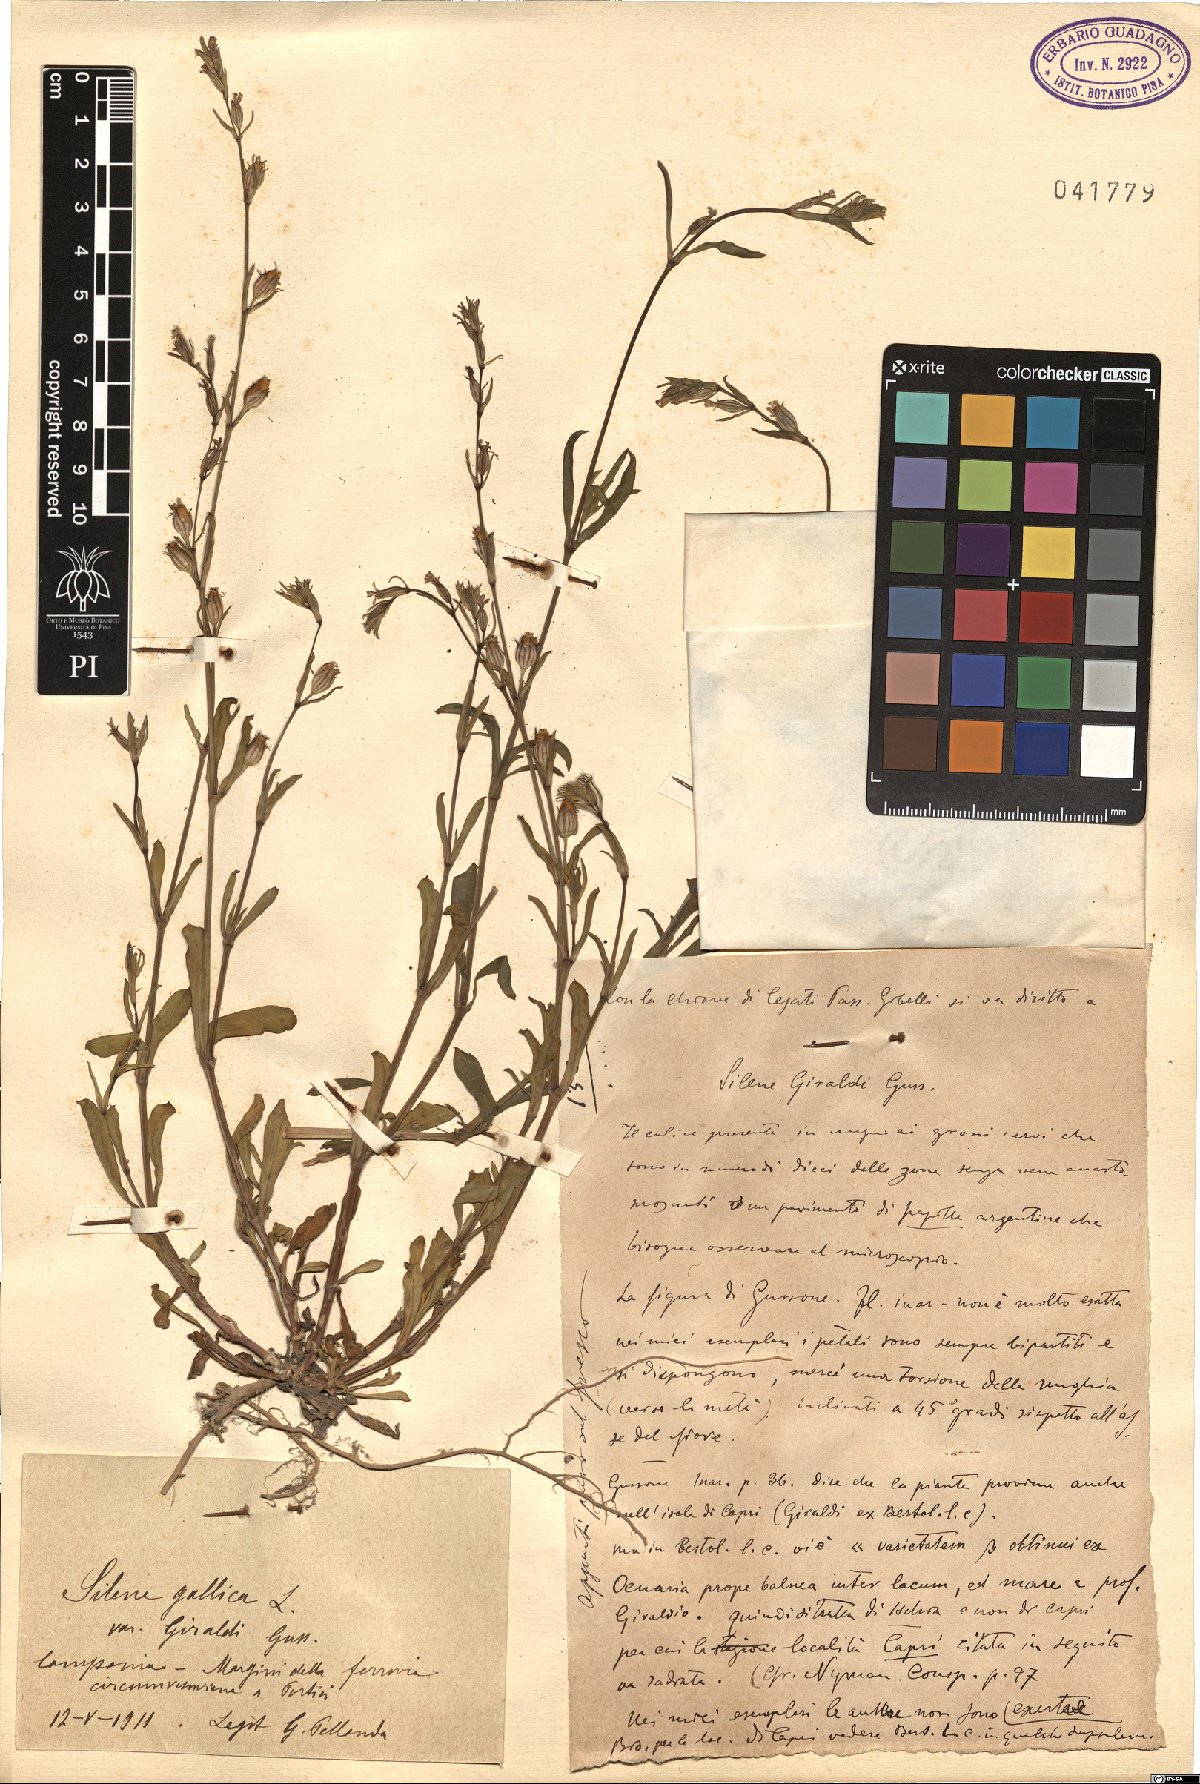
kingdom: Plantae
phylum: Tracheophyta
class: Magnoliopsida
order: Caryophyllales
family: Caryophyllaceae
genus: Silene
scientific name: Silene gallica
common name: Small-flowered catchfly
